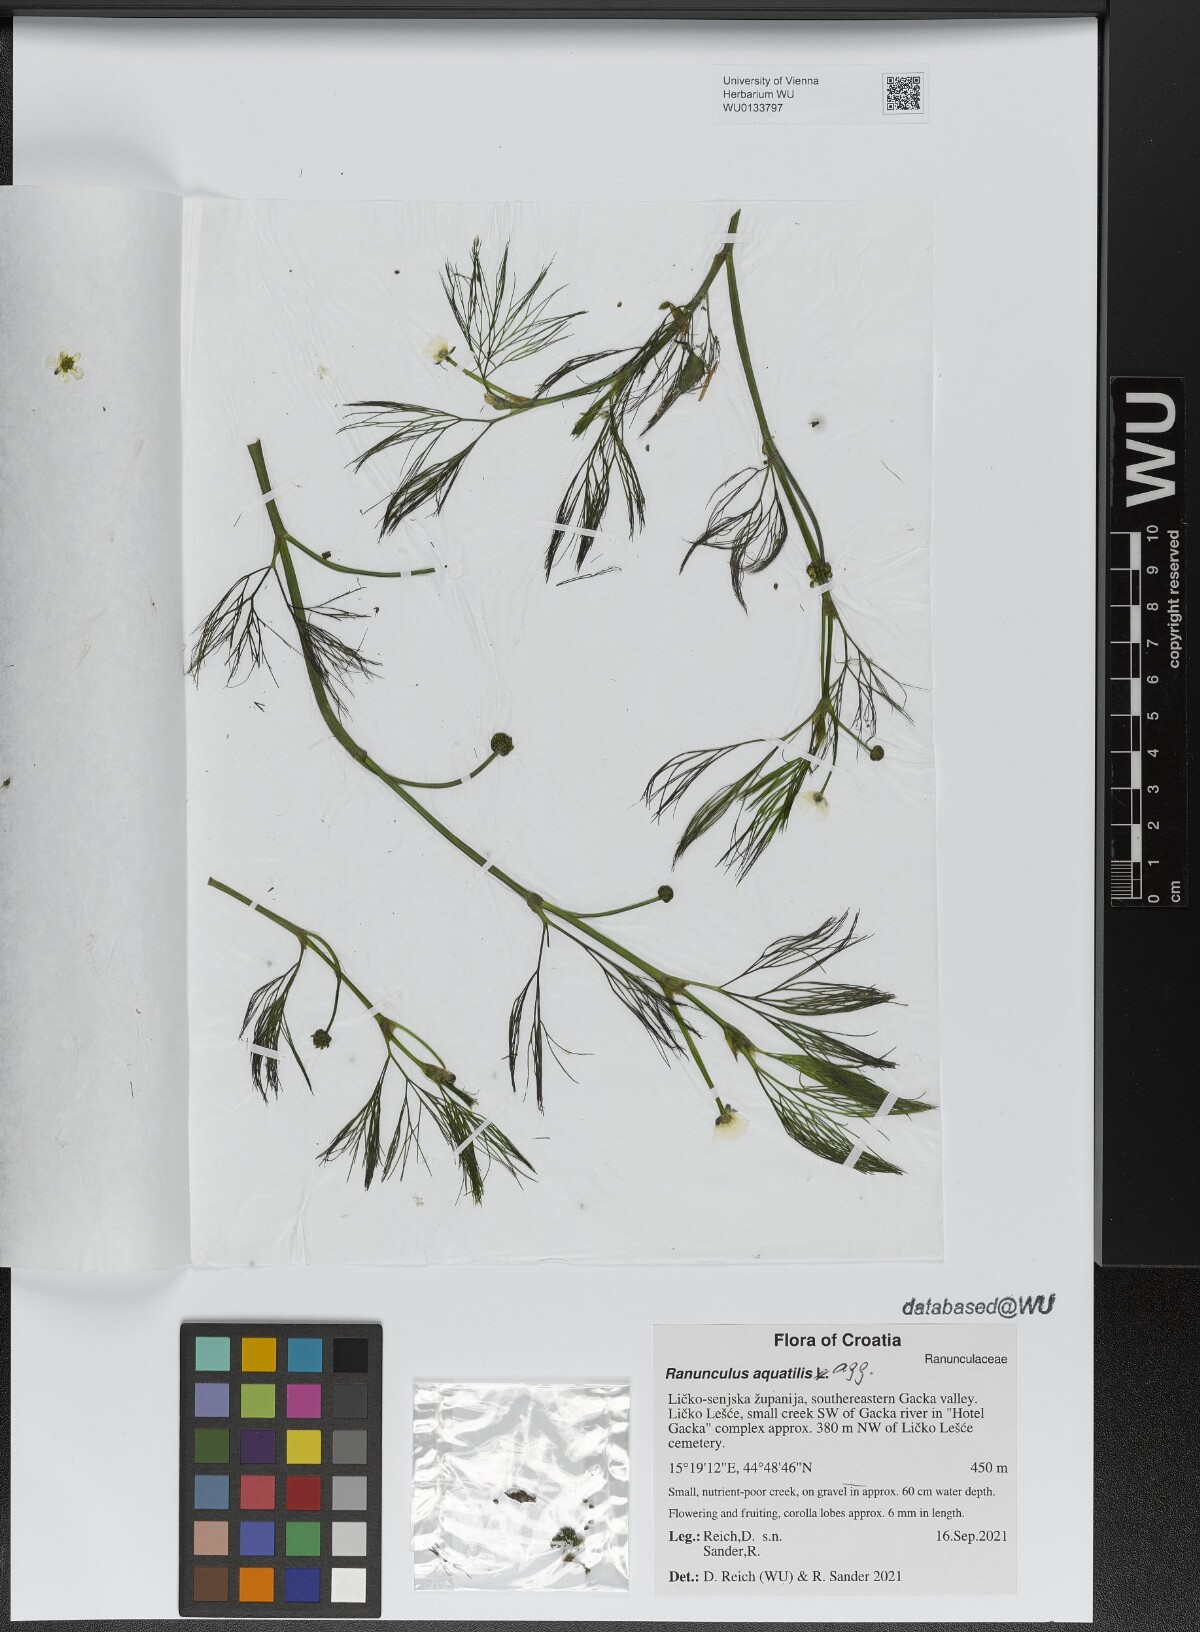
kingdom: Plantae
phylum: Tracheophyta
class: Magnoliopsida
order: Ranunculales
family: Ranunculaceae
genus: Ranunculus
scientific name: Ranunculus aquatilis
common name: Common water-crowfoot
